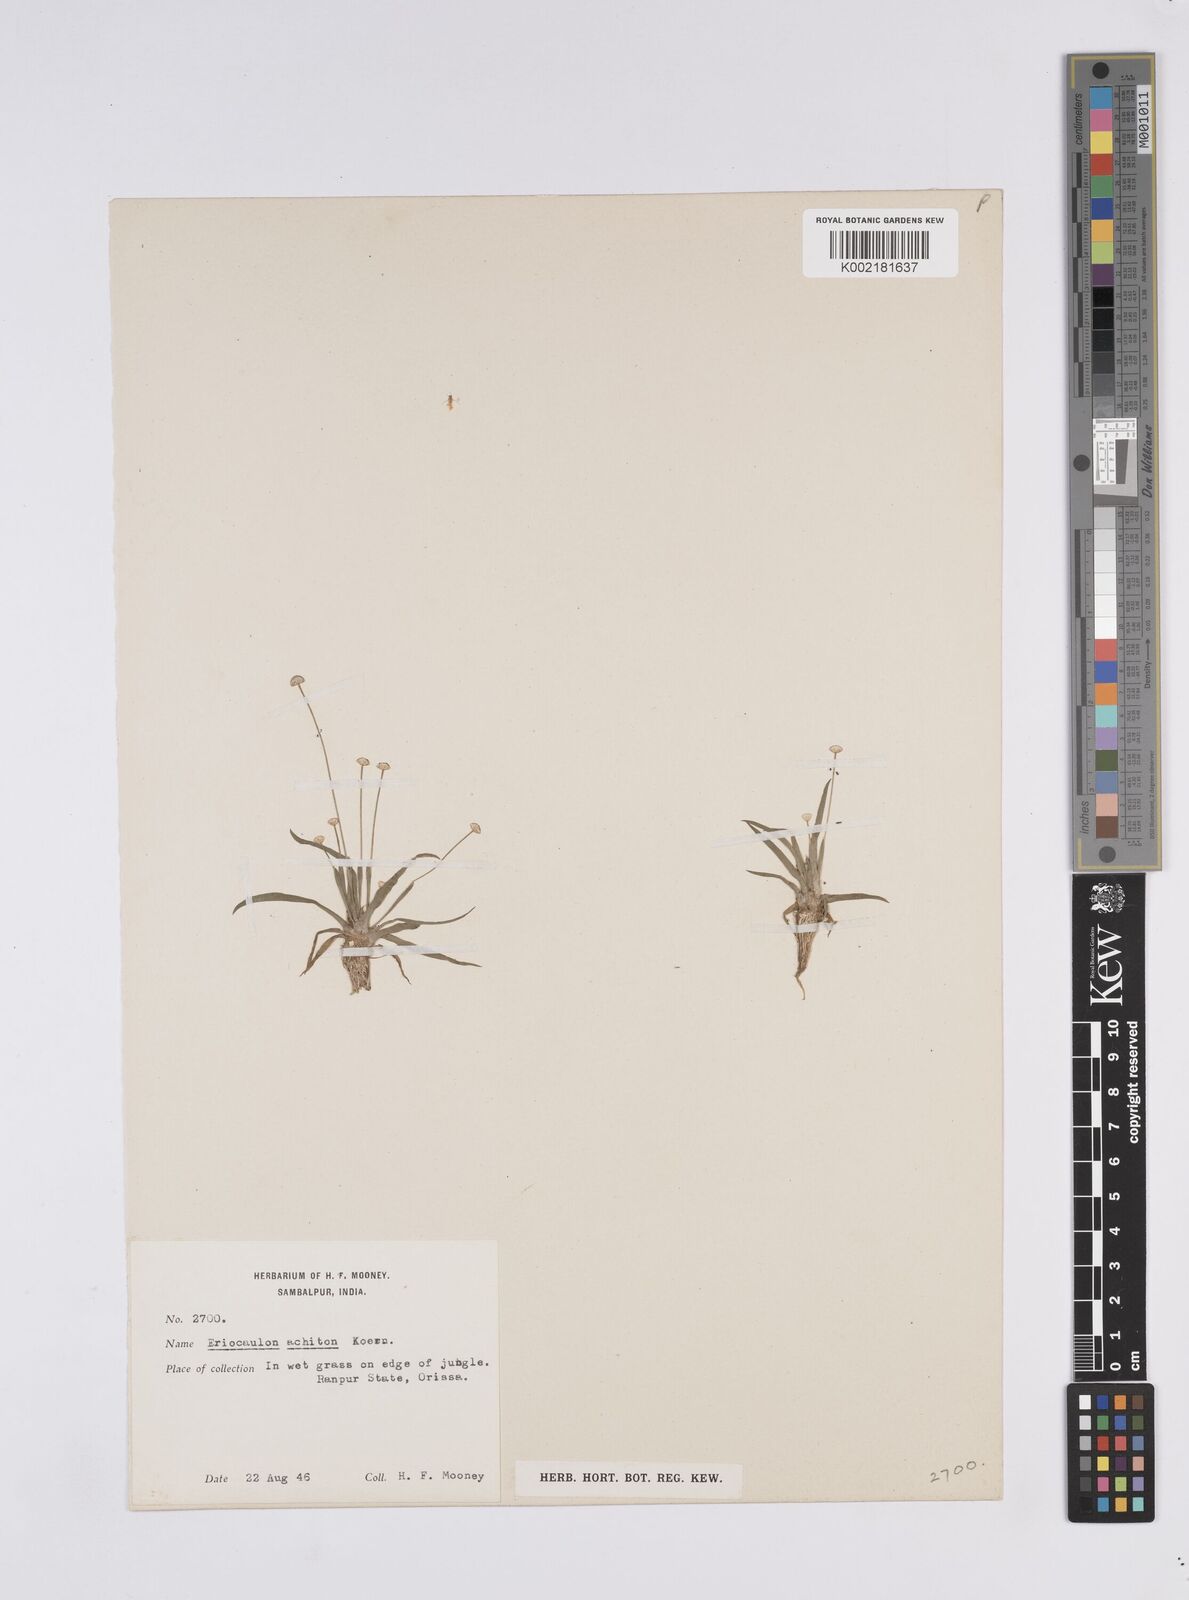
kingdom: Plantae
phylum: Tracheophyta
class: Liliopsida
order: Poales
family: Eriocaulaceae
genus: Eriocaulon
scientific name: Eriocaulon achiton
